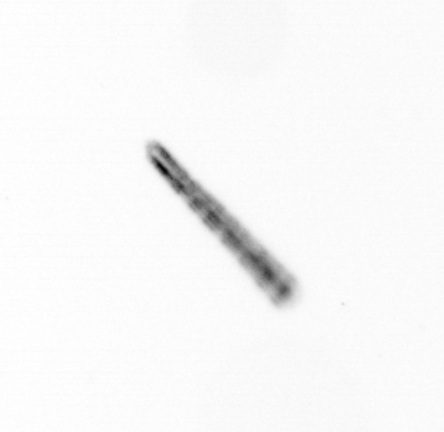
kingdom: Chromista
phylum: Ochrophyta
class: Bacillariophyceae
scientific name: Bacillariophyceae
